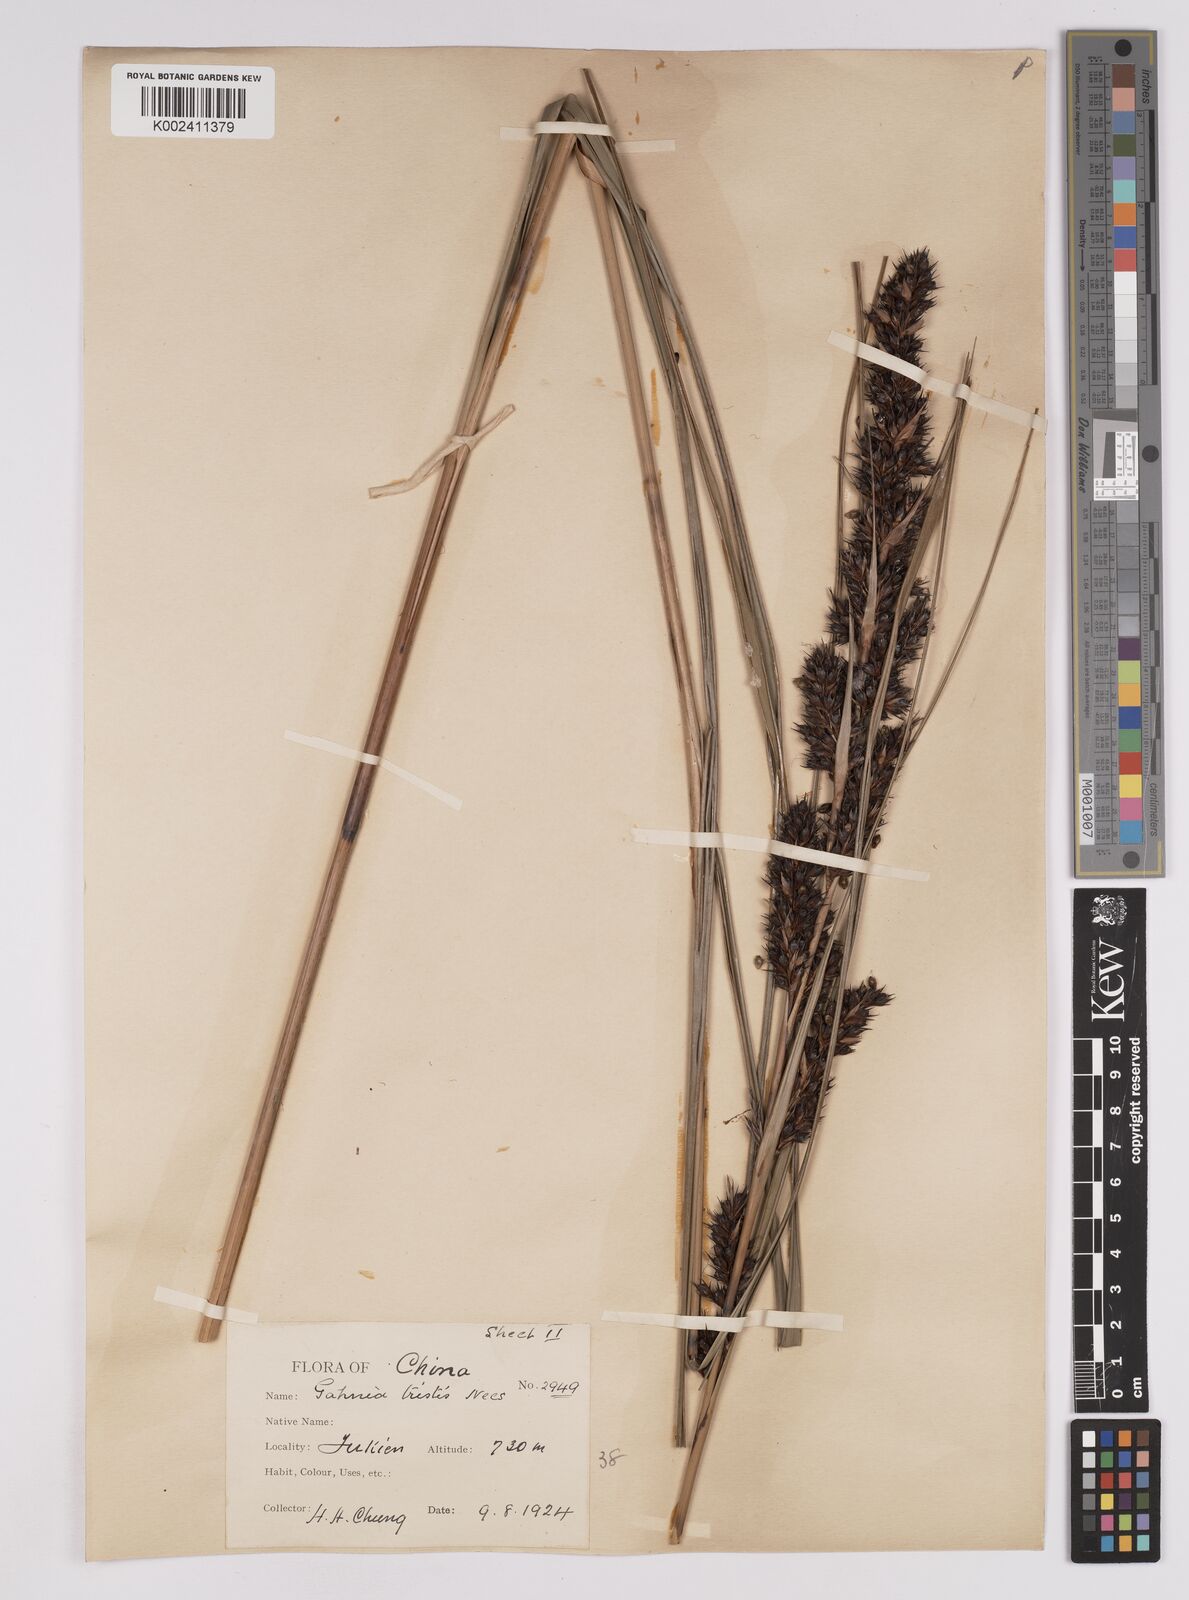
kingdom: Plantae
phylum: Tracheophyta
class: Liliopsida
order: Poales
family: Cyperaceae
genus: Gahnia
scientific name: Gahnia tristis
